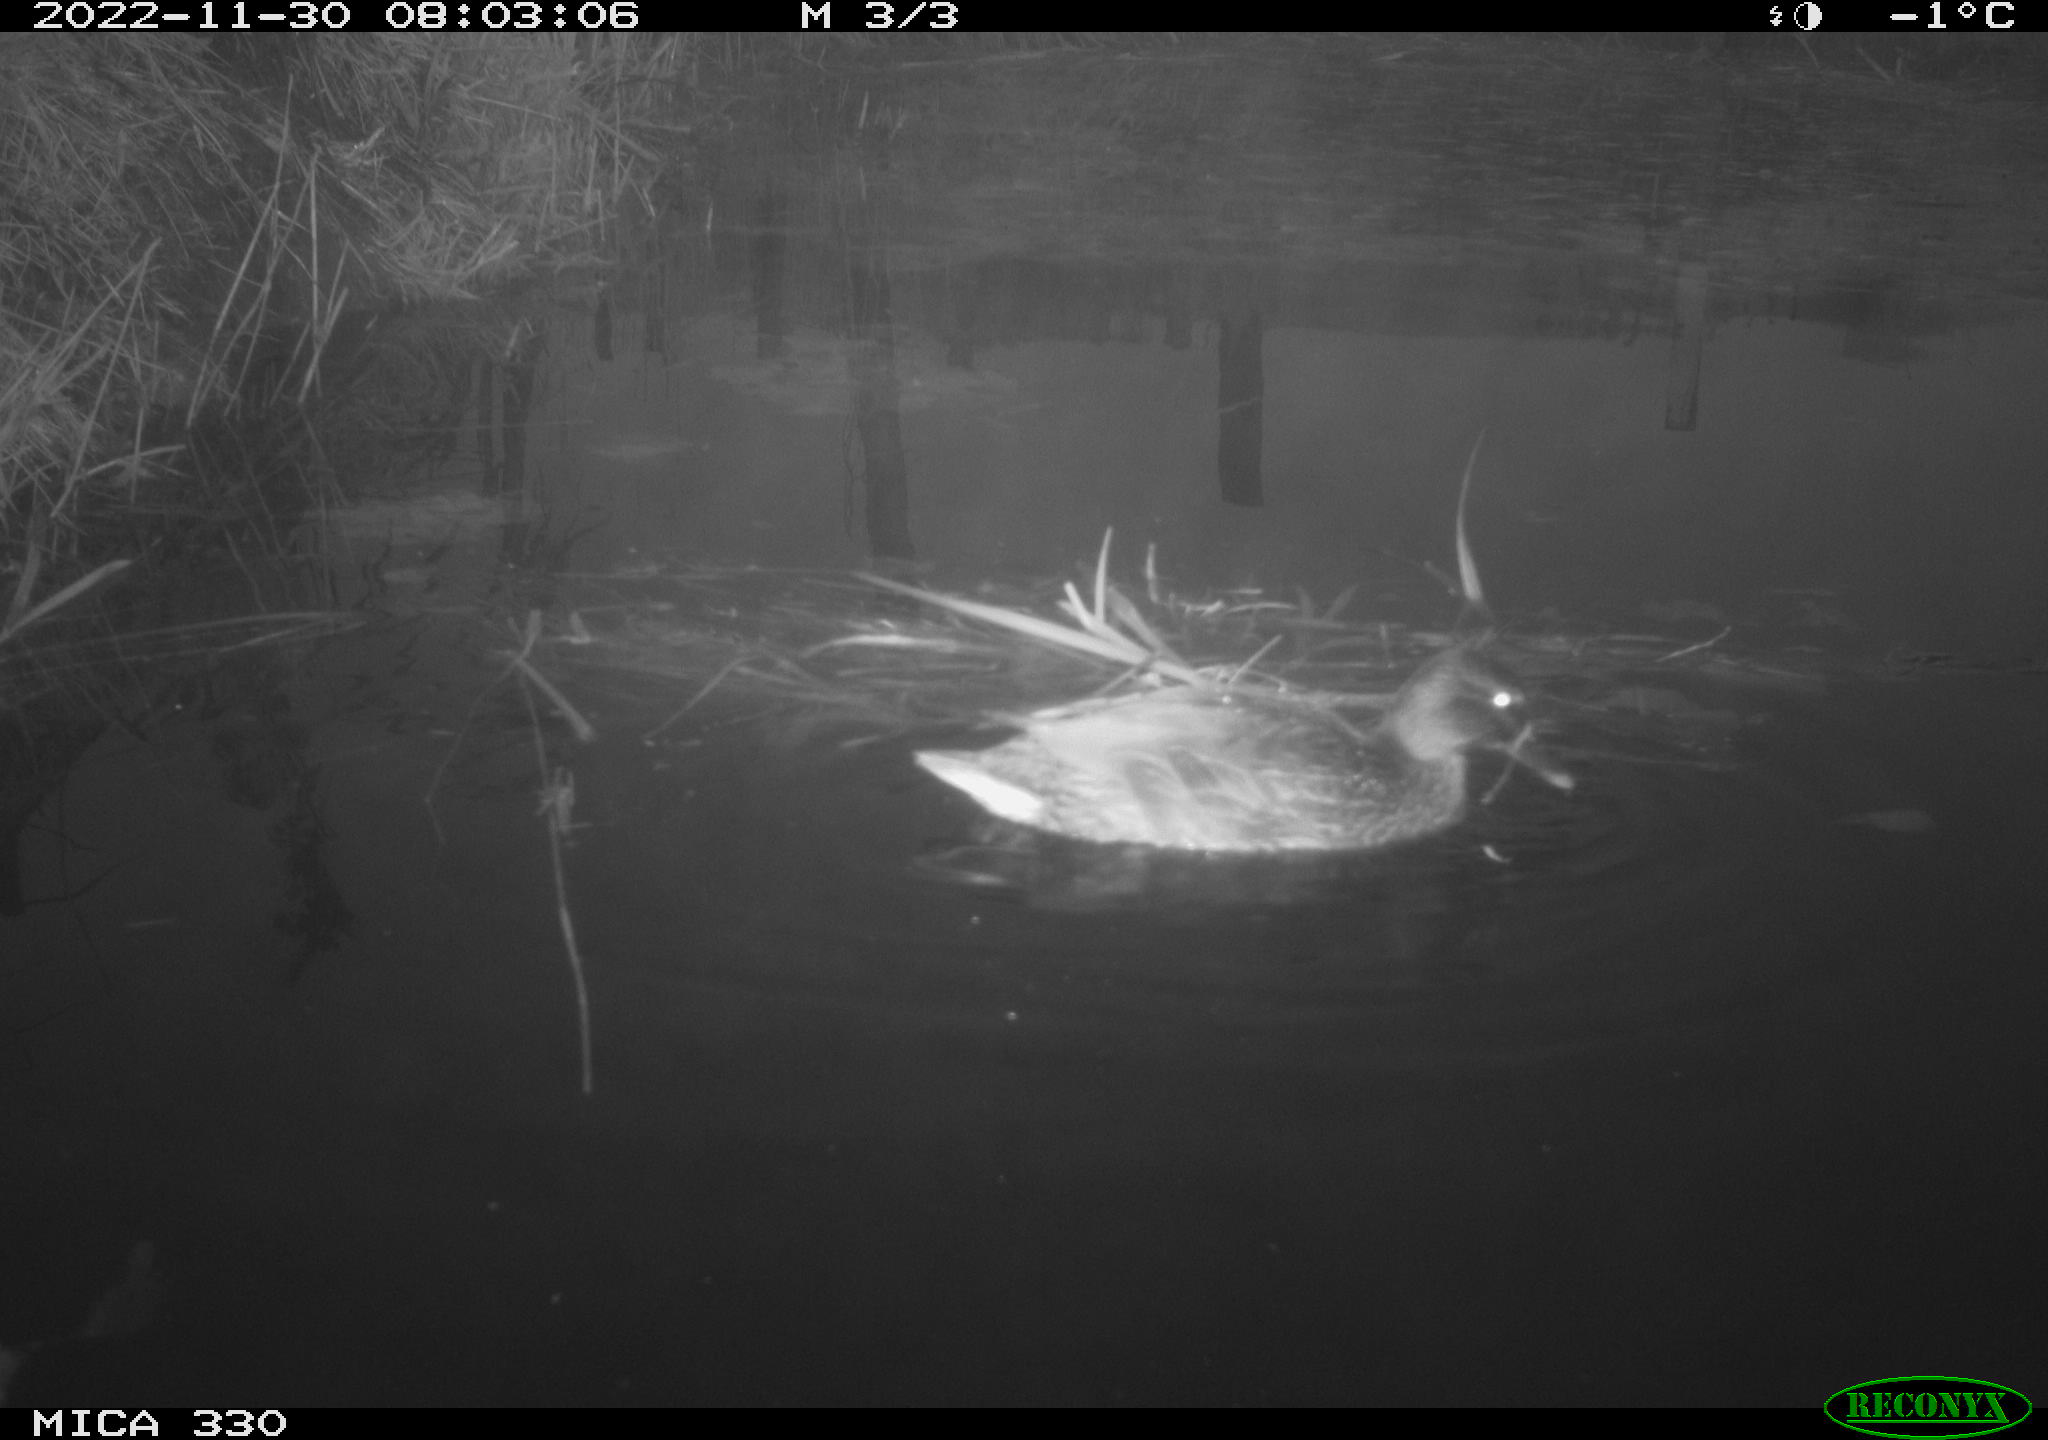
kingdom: Animalia
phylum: Chordata
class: Aves
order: Anseriformes
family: Anatidae
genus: Anas
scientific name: Anas
